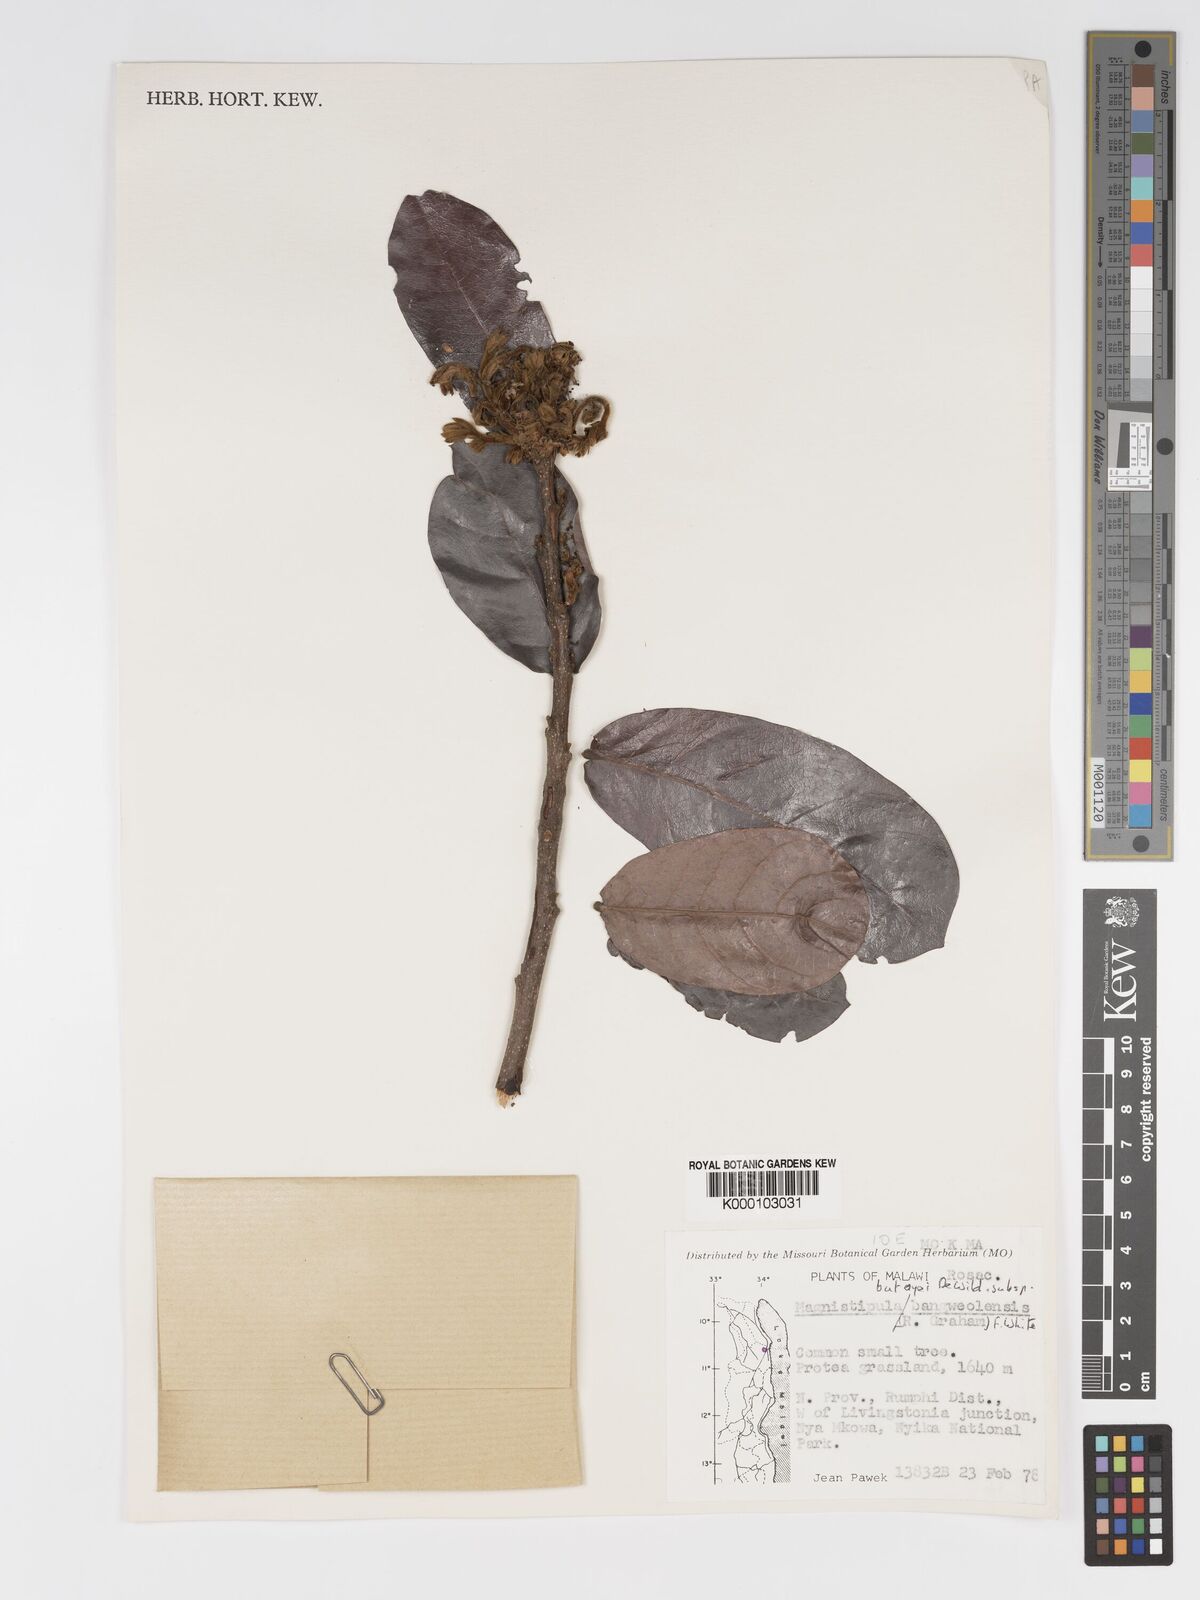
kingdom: Plantae
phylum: Tracheophyta
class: Magnoliopsida
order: Malpighiales
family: Chrysobalanaceae
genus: Magnistipula
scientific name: Magnistipula butayei
